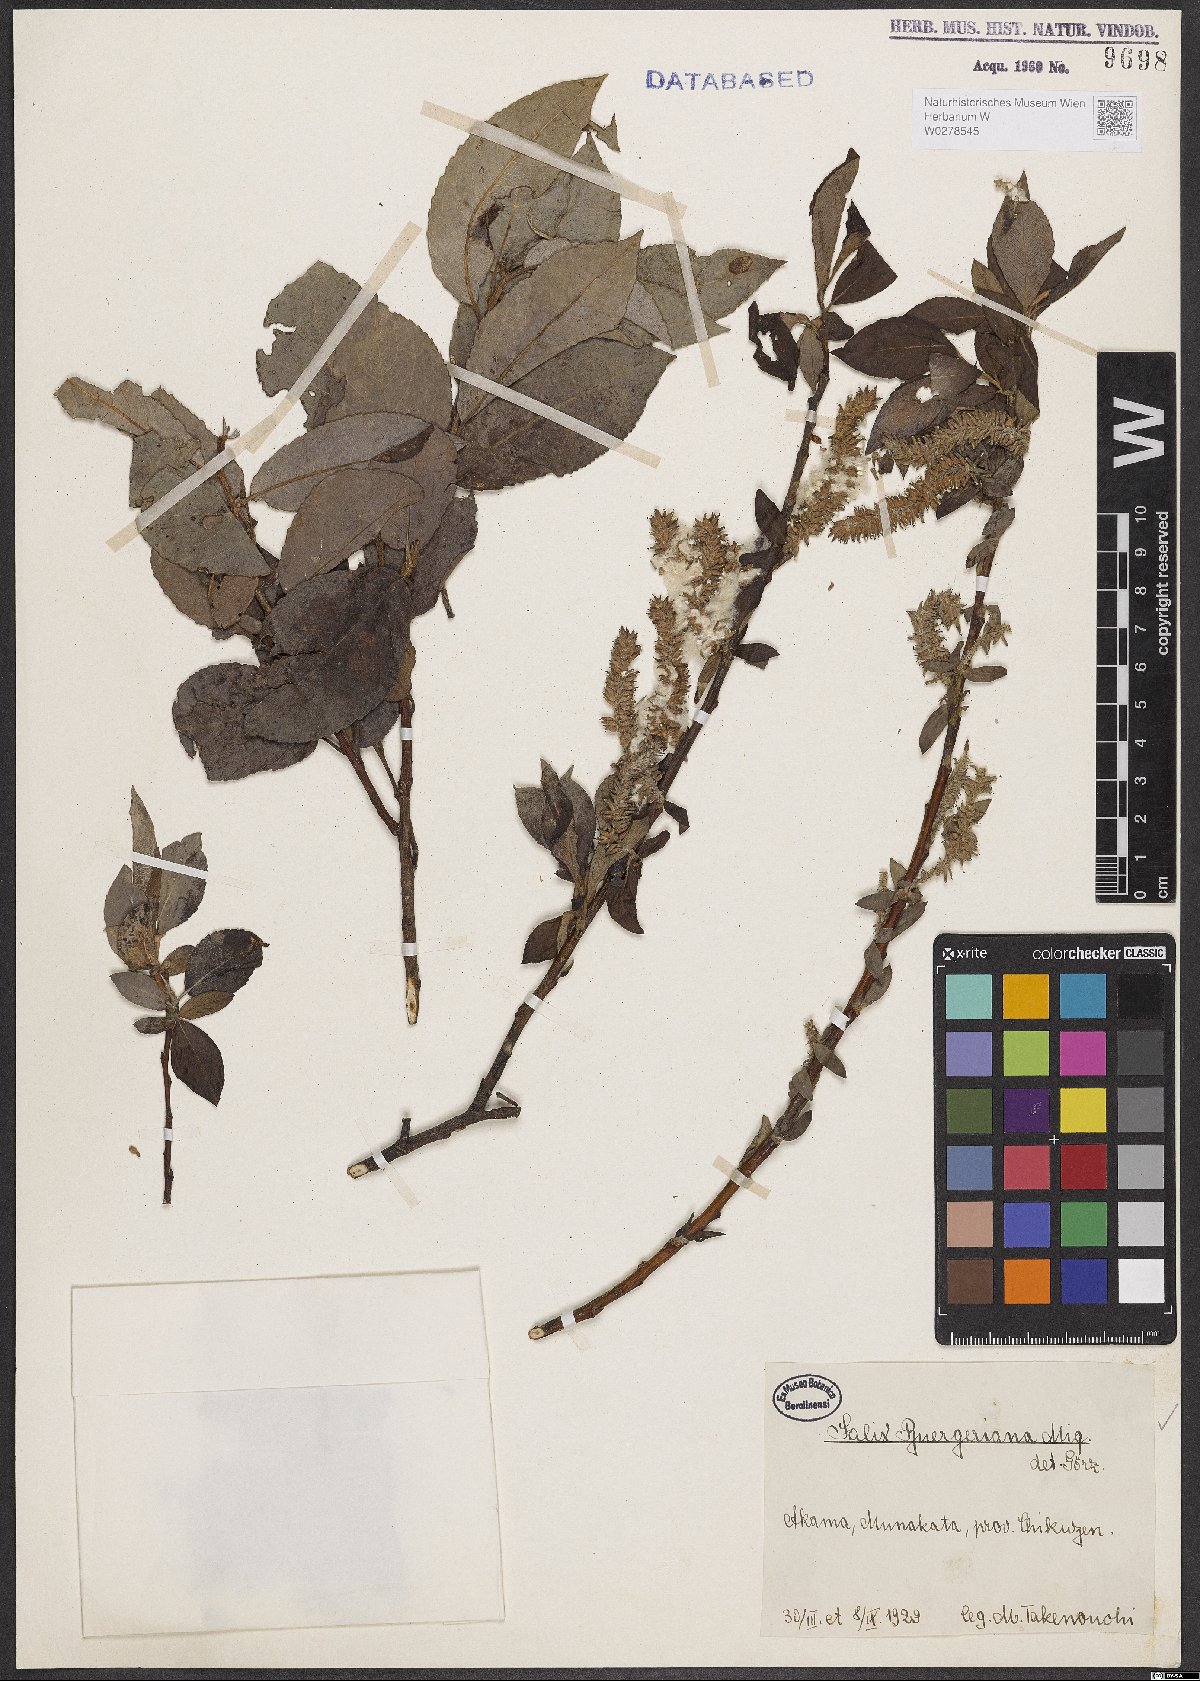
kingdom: Plantae
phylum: Tracheophyta
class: Magnoliopsida
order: Malpighiales
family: Salicaceae
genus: Salix
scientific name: Salix sieboldiana
